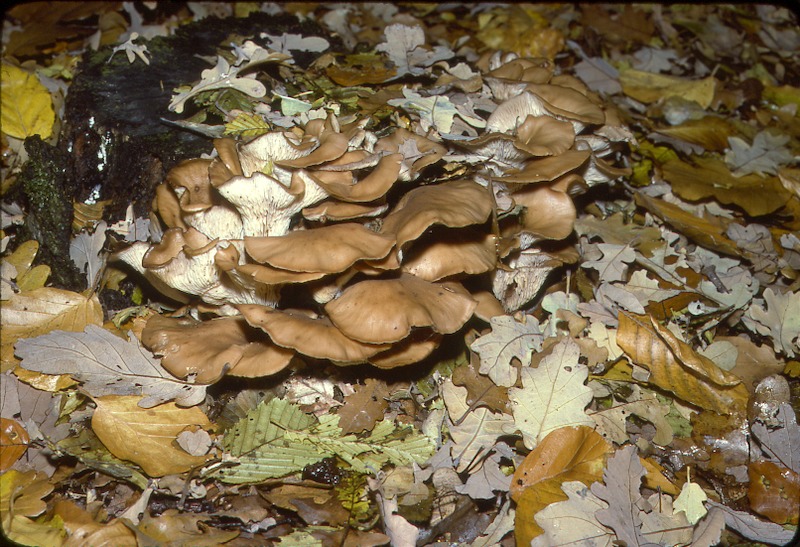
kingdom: Plantae
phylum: Tracheophyta
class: Magnoliopsida
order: Fagales
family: Betulaceae
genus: Alnus
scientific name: Alnus glutinosa
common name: Black alder
